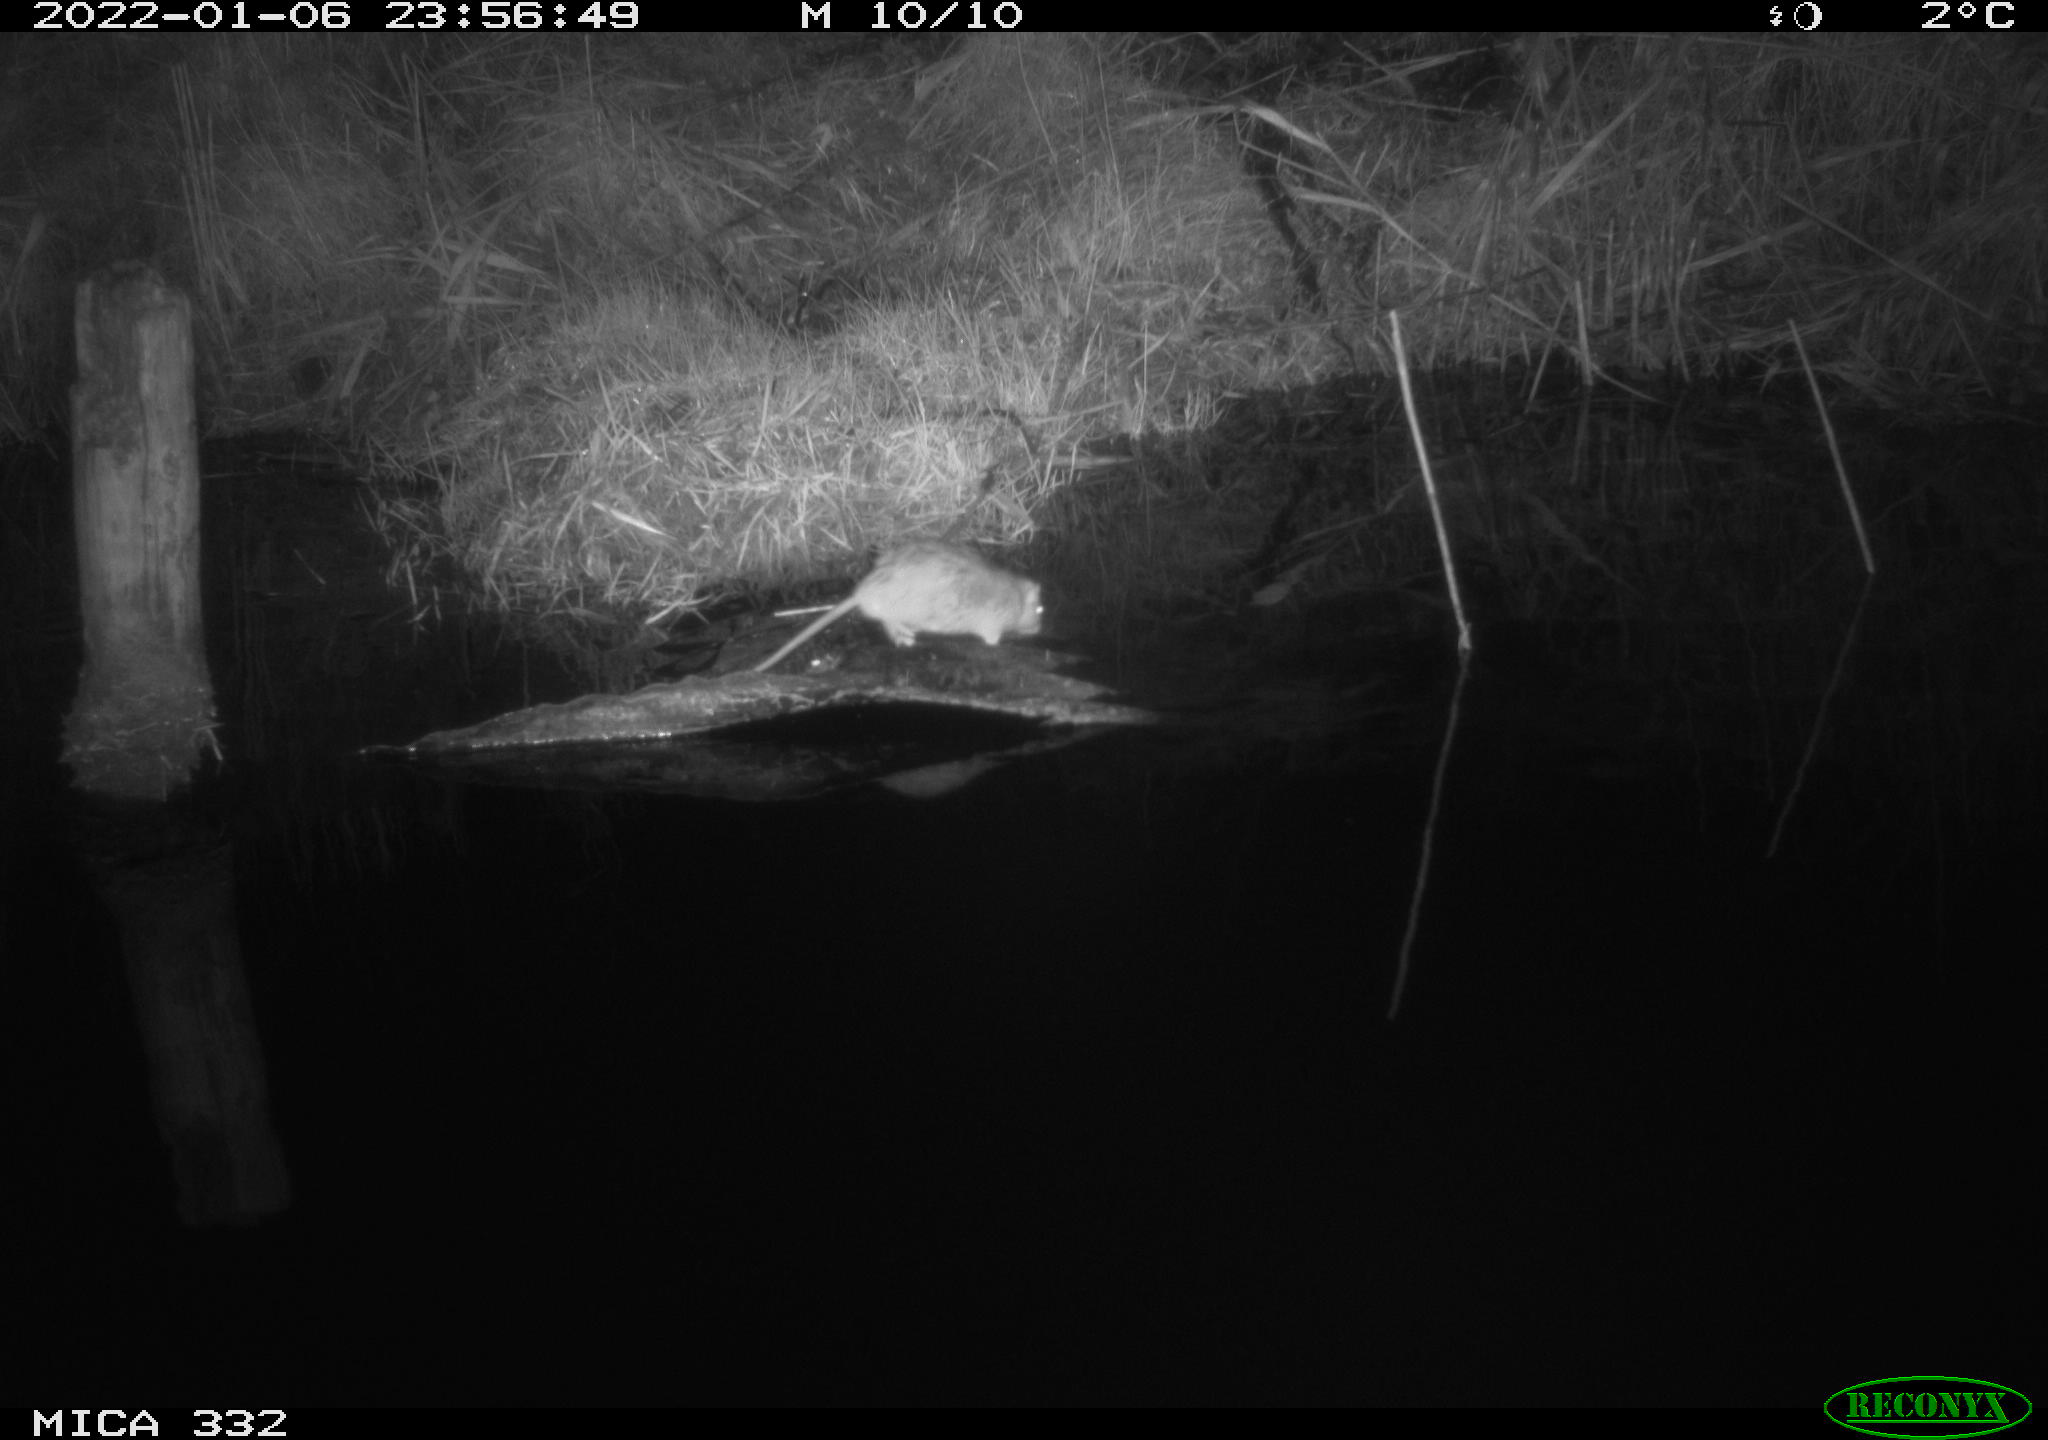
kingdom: Animalia
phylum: Chordata
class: Mammalia
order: Rodentia
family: Muridae
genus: Rattus
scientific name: Rattus norvegicus
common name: Brown rat
